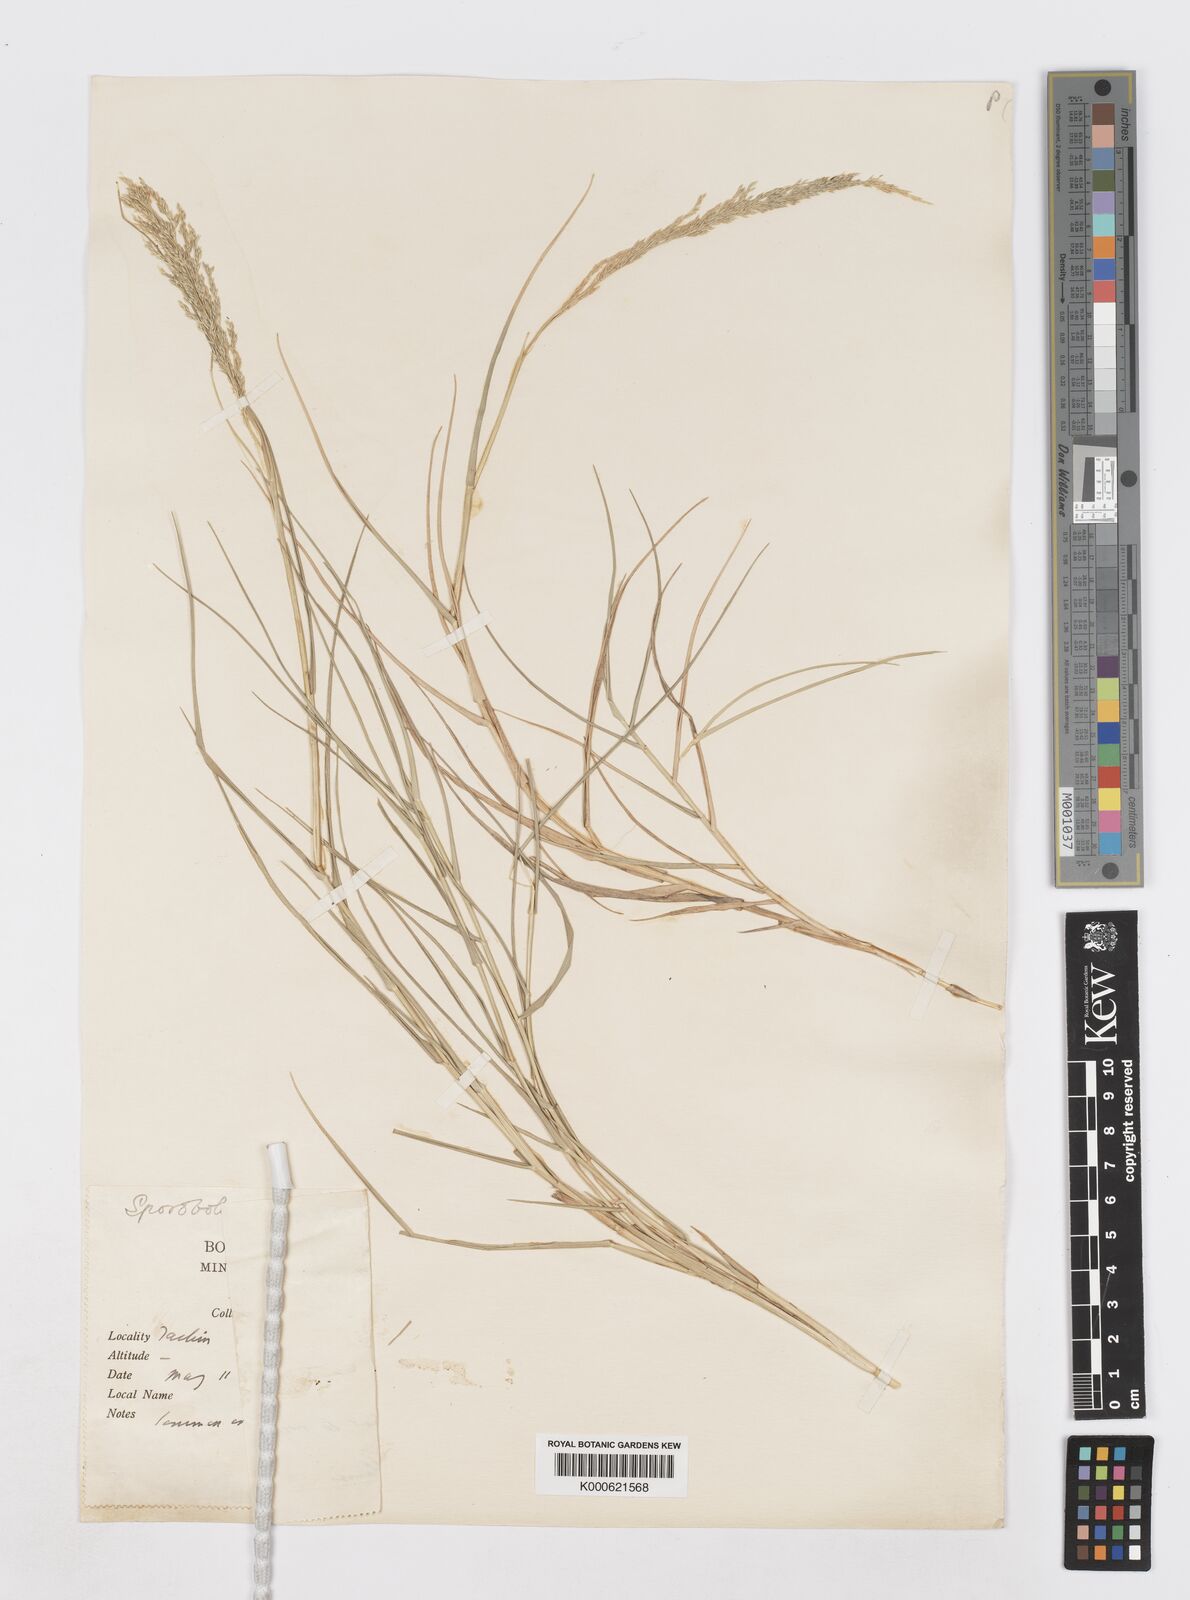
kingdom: Plantae
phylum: Tracheophyta
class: Liliopsida
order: Poales
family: Poaceae
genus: Sporobolus
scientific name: Sporobolus virginicus
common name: Beach dropseed
